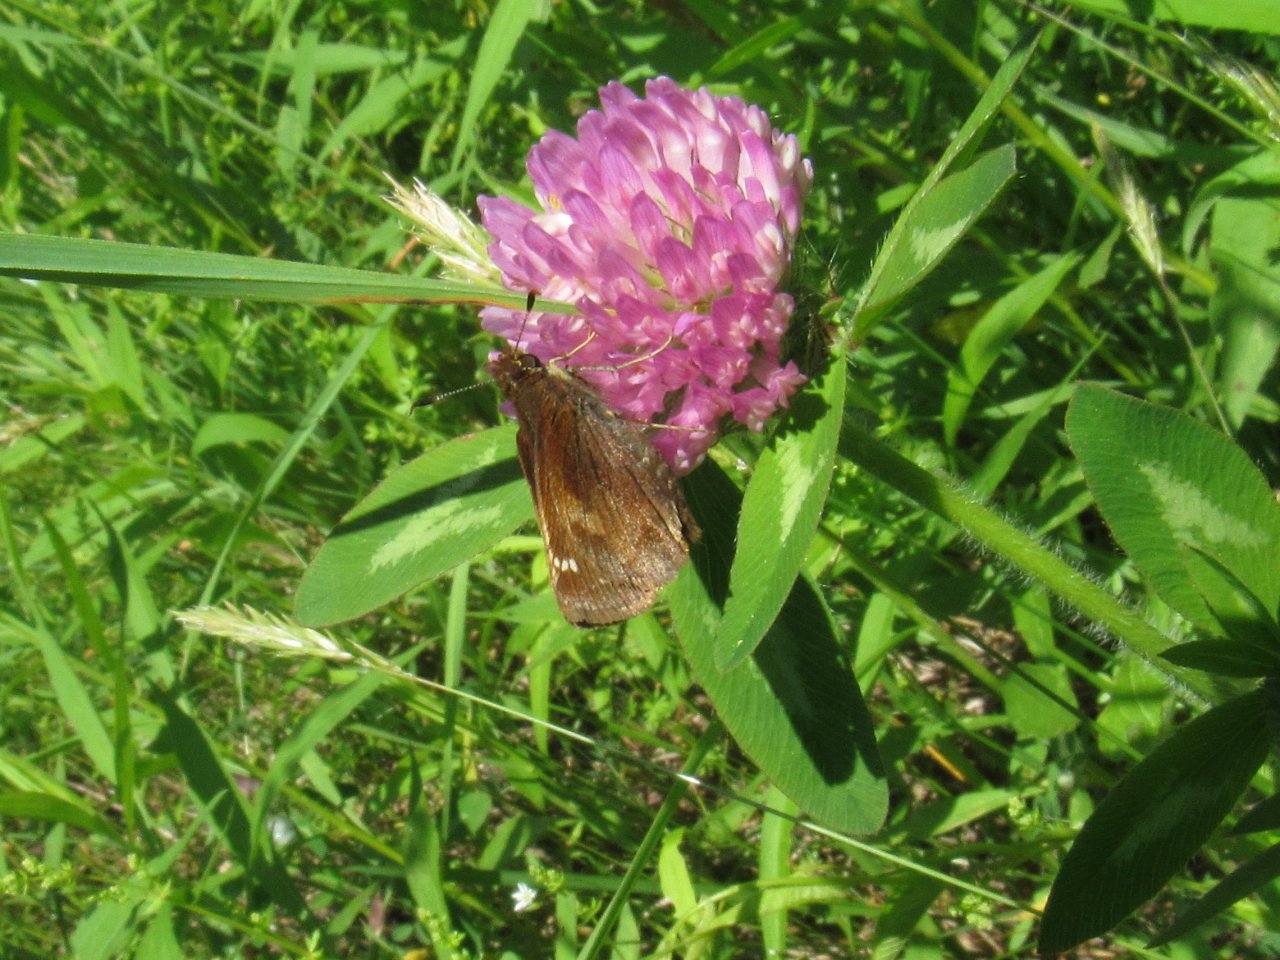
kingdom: Animalia
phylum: Arthropoda
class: Insecta
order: Lepidoptera
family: Hesperiidae
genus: Lon
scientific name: Lon hobomok
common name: Hobomok Skipper
